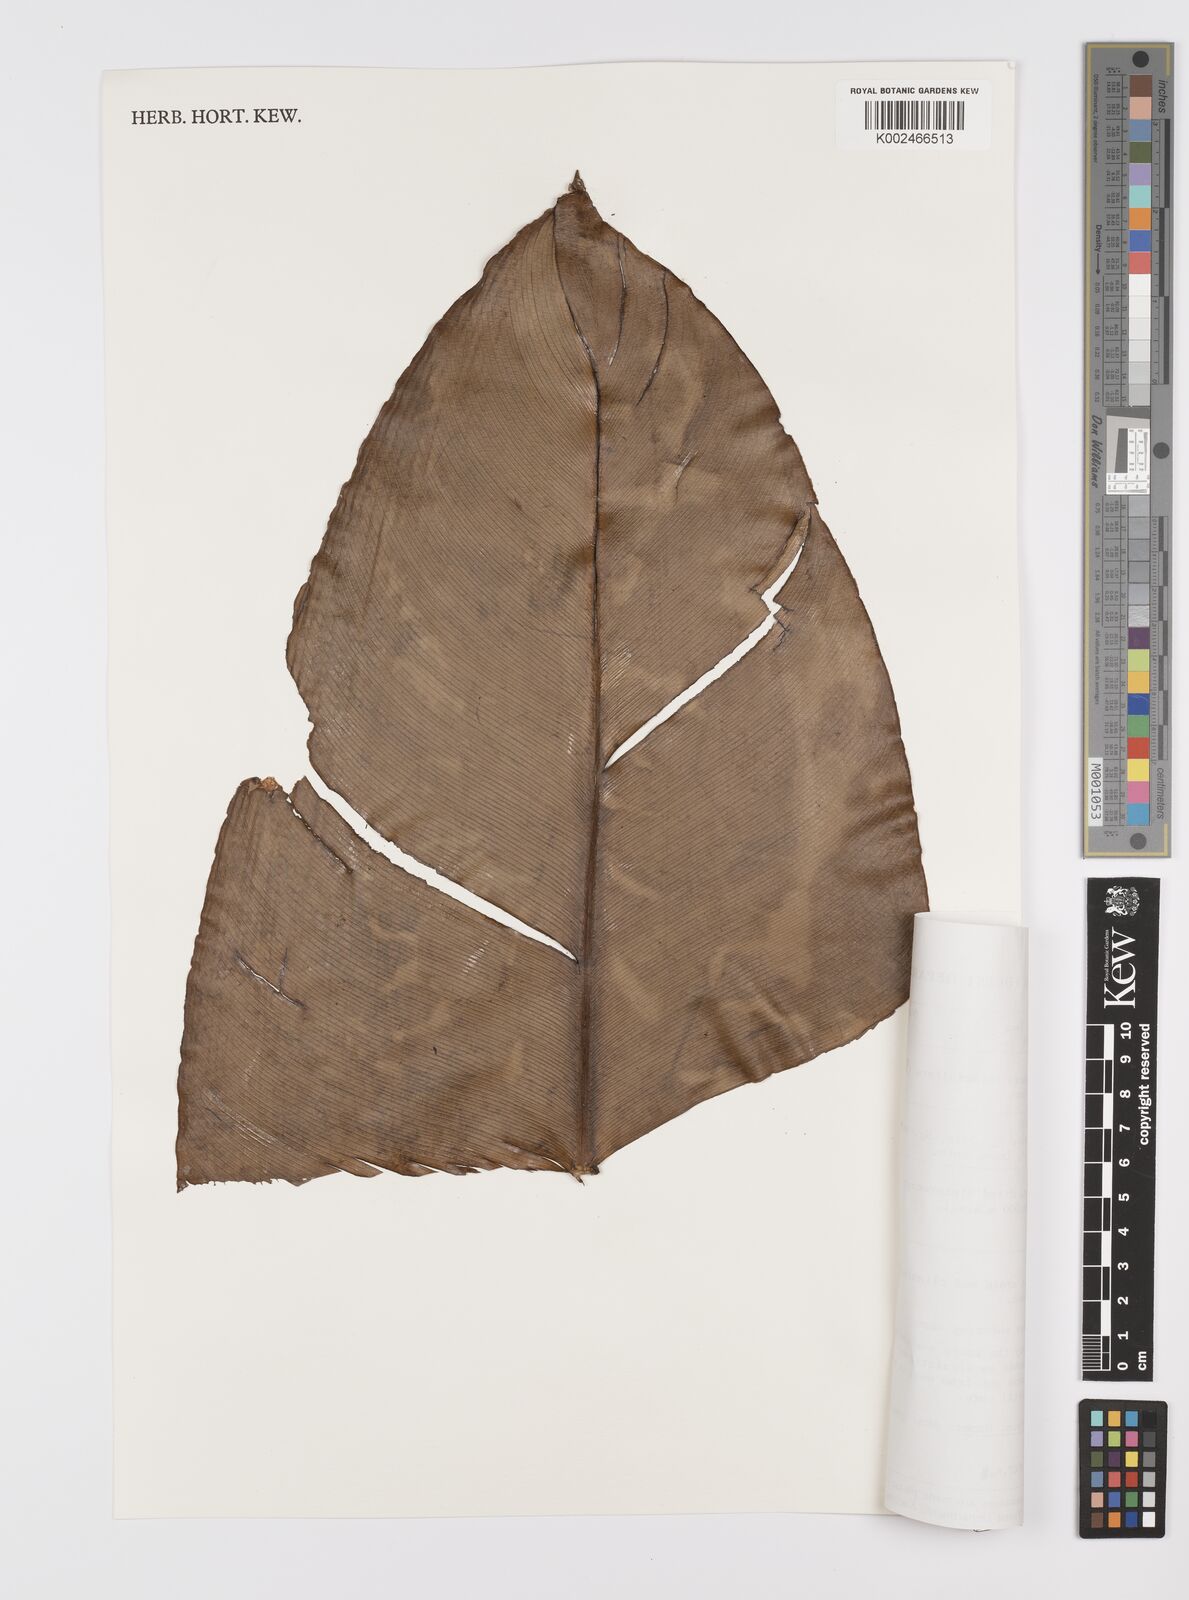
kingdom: Plantae
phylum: Tracheophyta
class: Liliopsida
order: Alismatales
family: Araceae
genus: Scindapsus
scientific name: Scindapsus glaucescens
